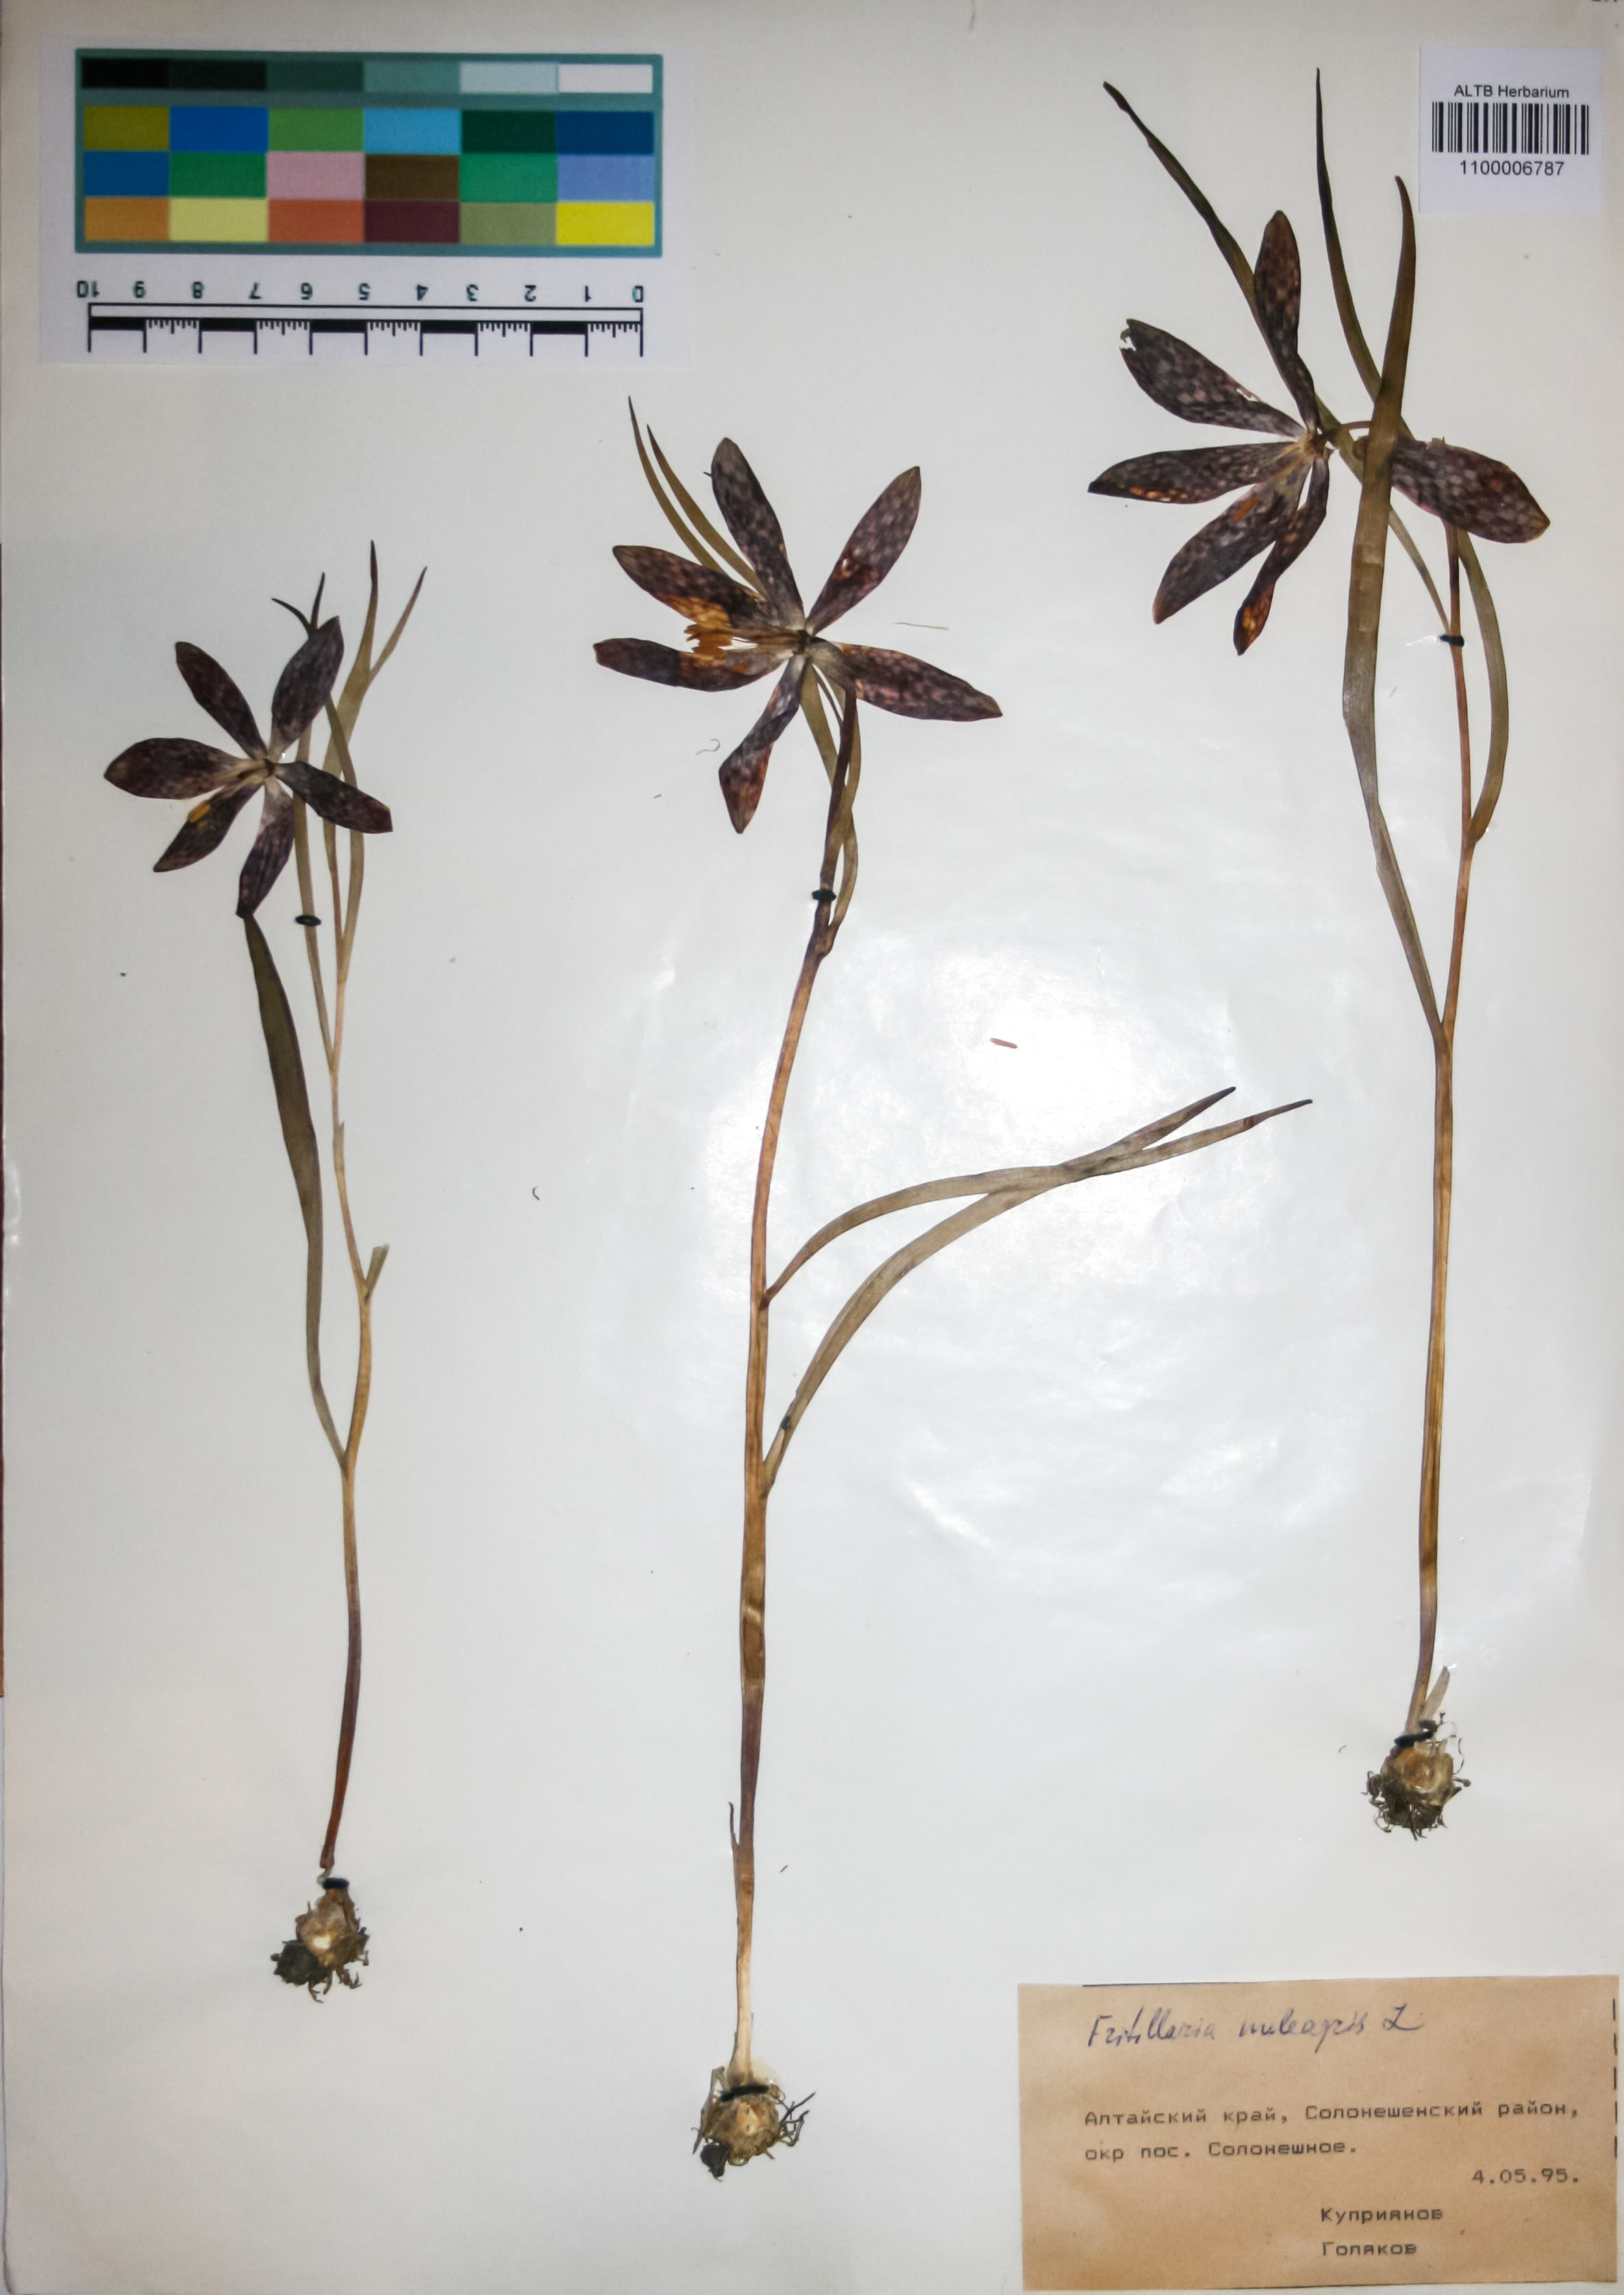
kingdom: Plantae
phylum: Tracheophyta
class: Liliopsida
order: Liliales
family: Liliaceae
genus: Fritillaria
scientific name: Fritillaria meleagris
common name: Fritillary
